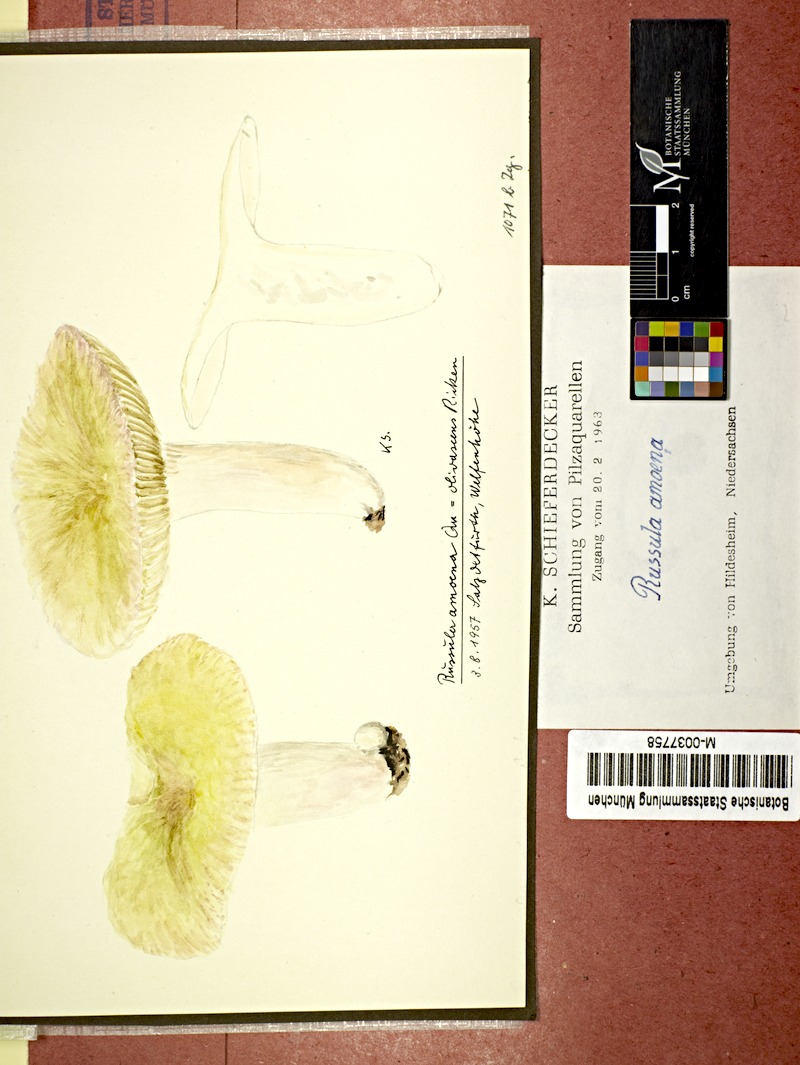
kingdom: Fungi
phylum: Basidiomycota
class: Agaricomycetes
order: Russulales
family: Russulaceae
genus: Russula
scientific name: Russula violeipes
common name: Velvet brittlegill
